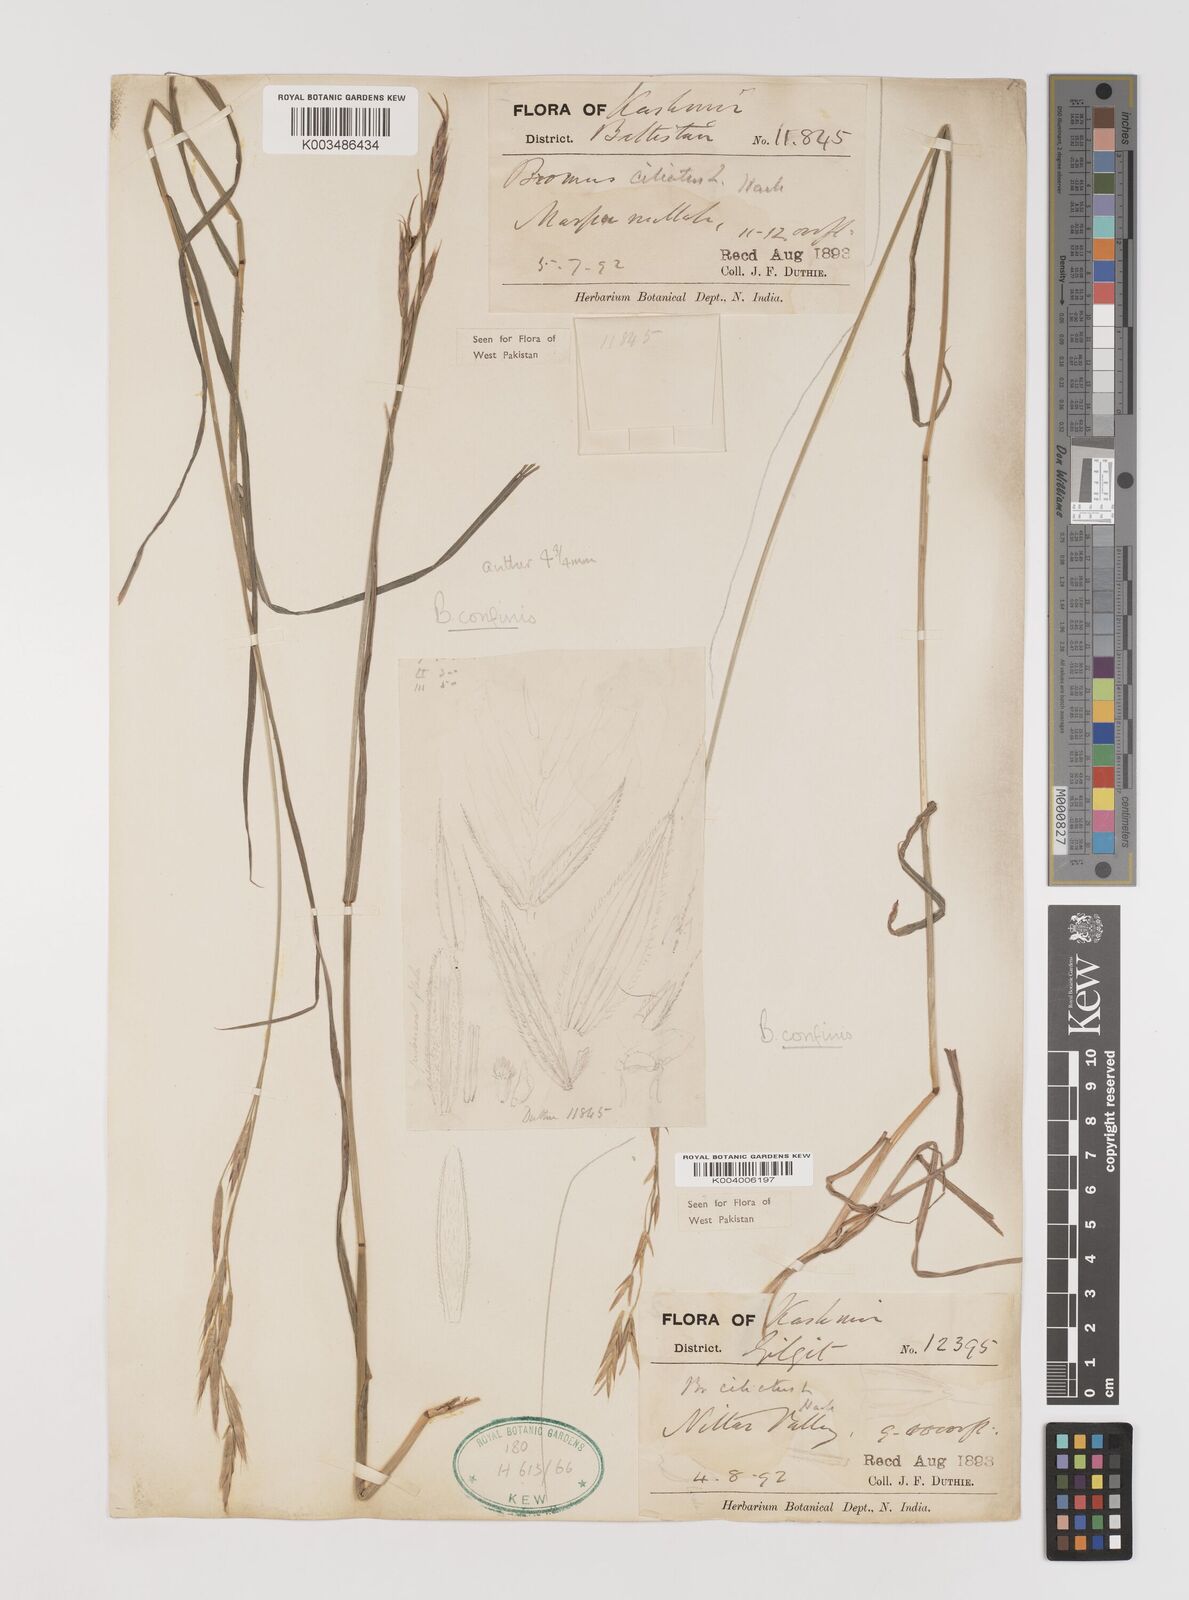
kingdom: Plantae
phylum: Tracheophyta
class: Liliopsida
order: Poales
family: Poaceae
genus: Bromus
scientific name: Bromus confinis
